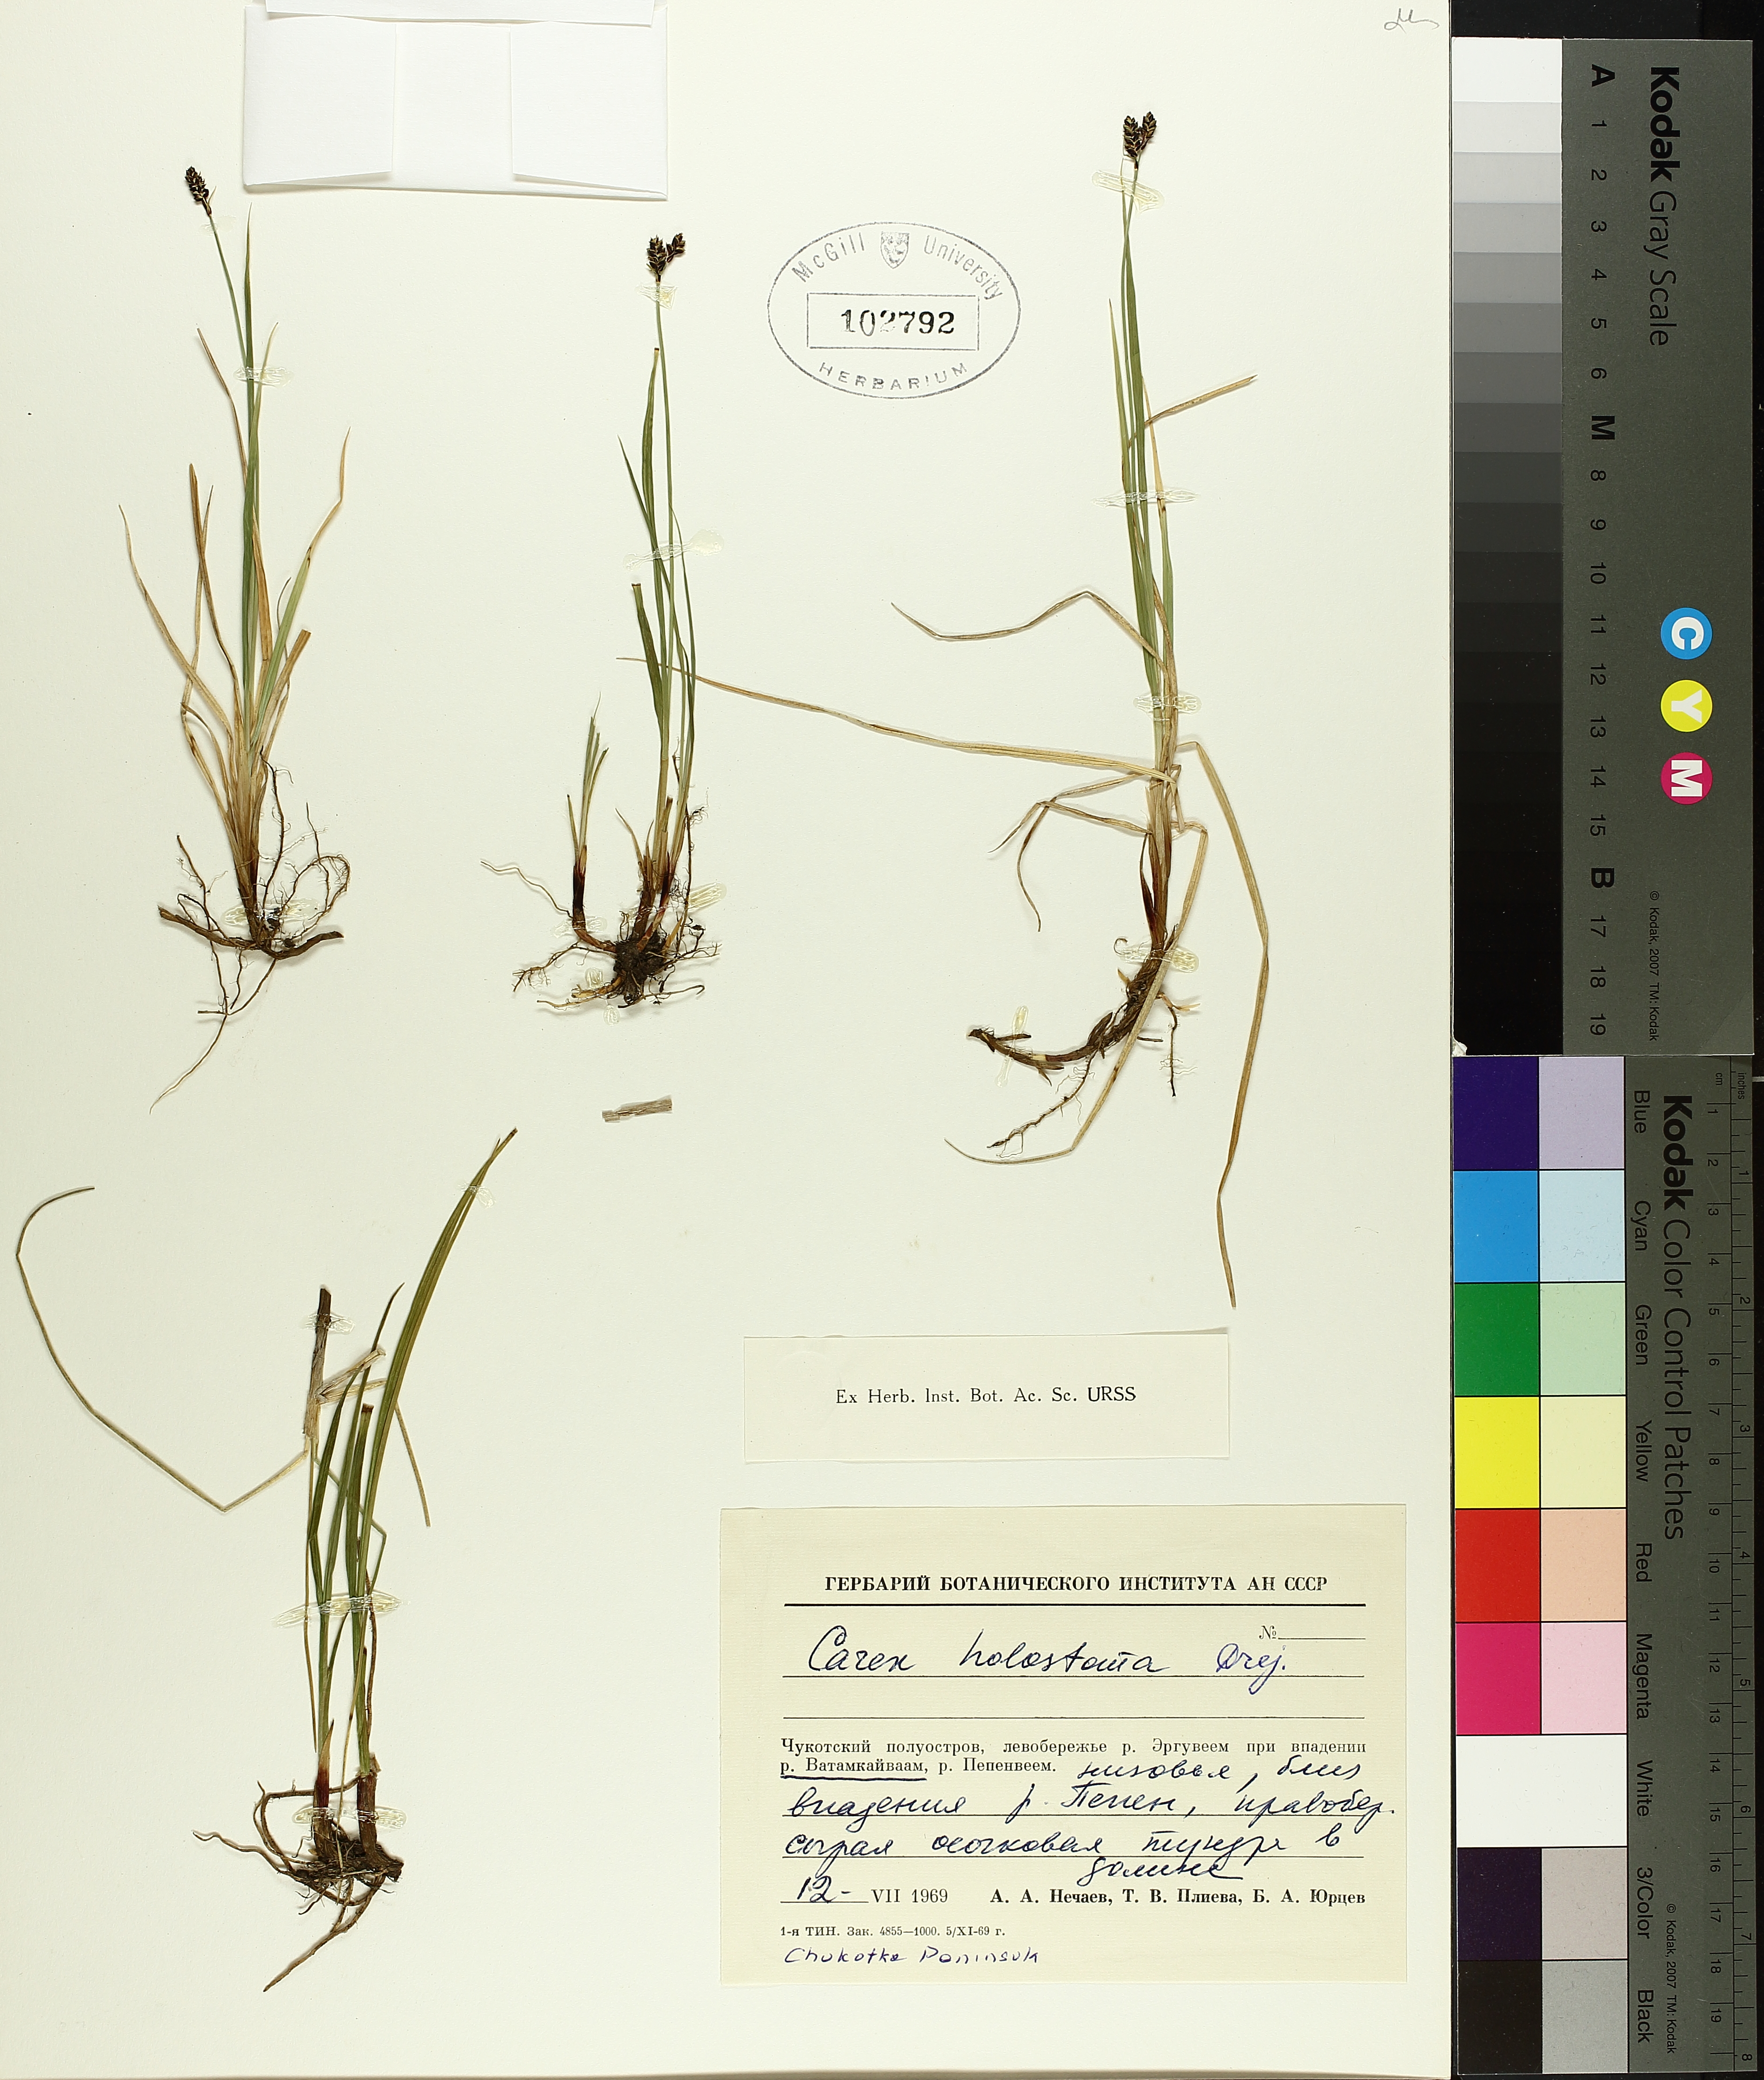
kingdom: Plantae
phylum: Tracheophyta
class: Liliopsida
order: Poales
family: Cyperaceae
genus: Carex
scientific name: Carex holostoma
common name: Arctic marsh sedge
